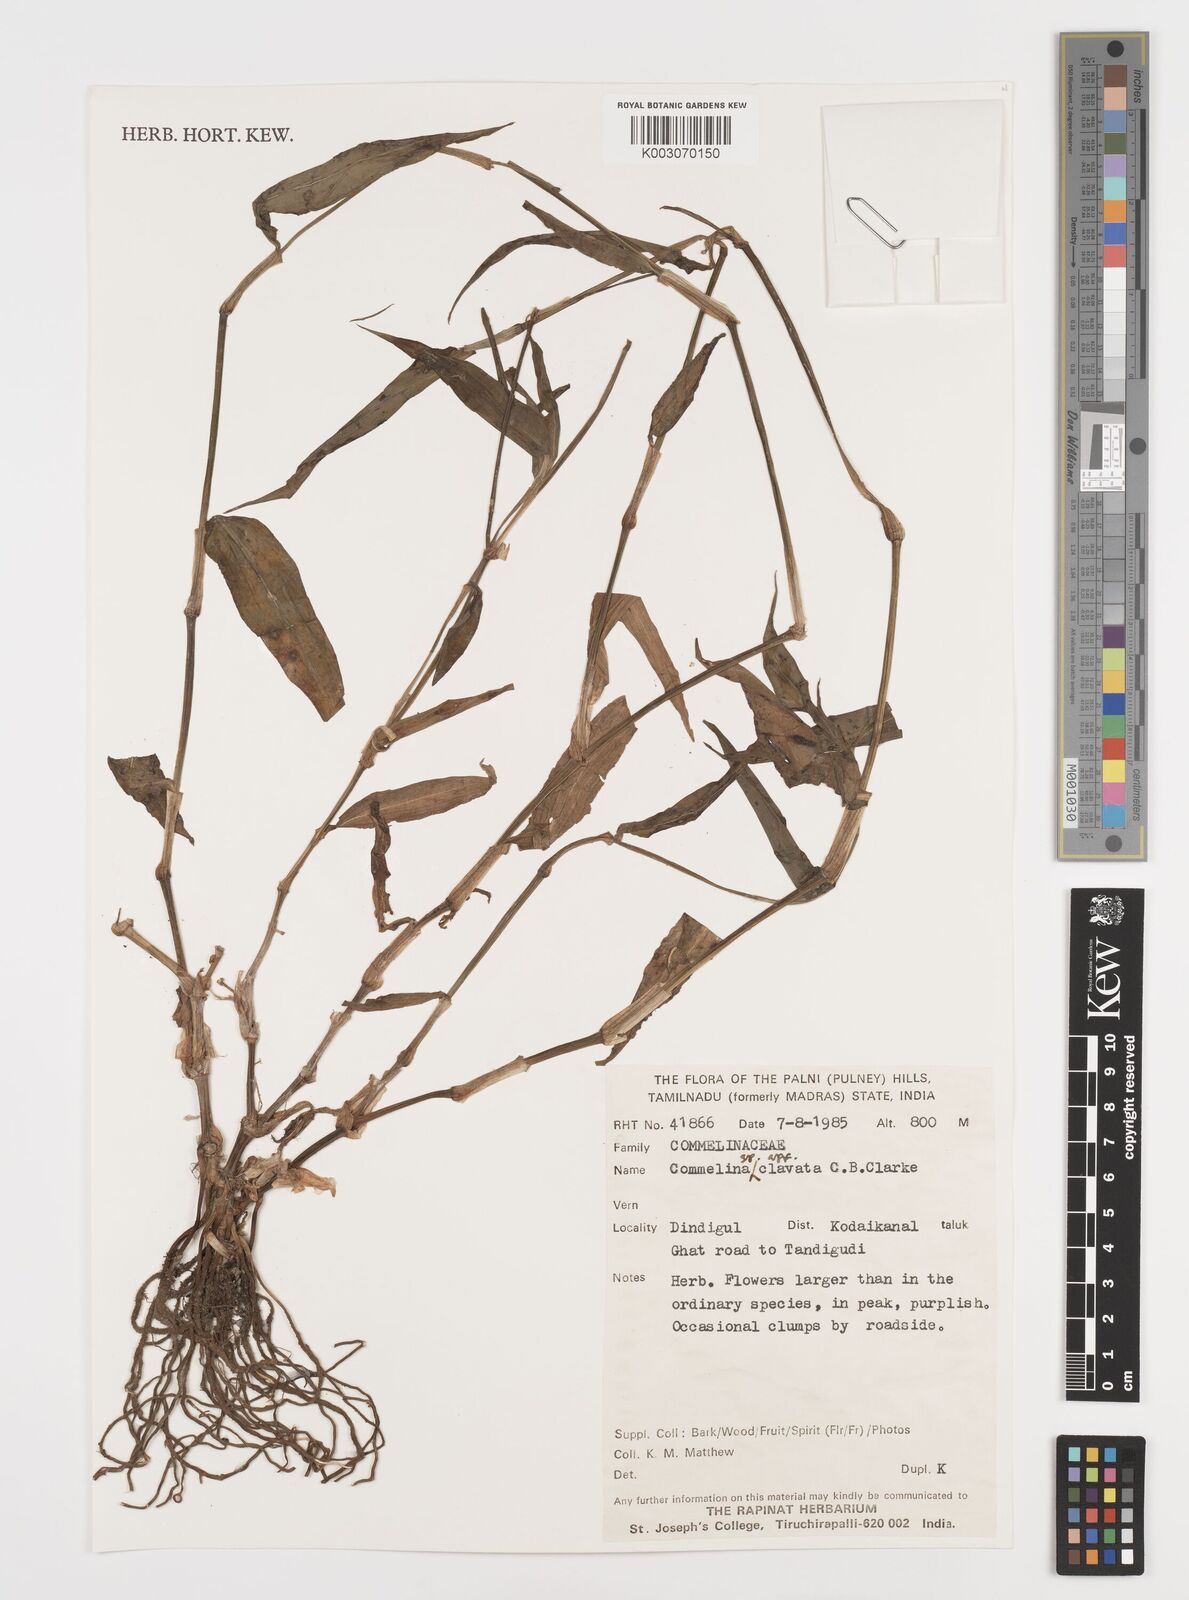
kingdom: Plantae
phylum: Tracheophyta
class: Liliopsida
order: Commelinales
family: Commelinaceae
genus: Commelina
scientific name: Commelina clavata
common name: Willow leaved dayflower
